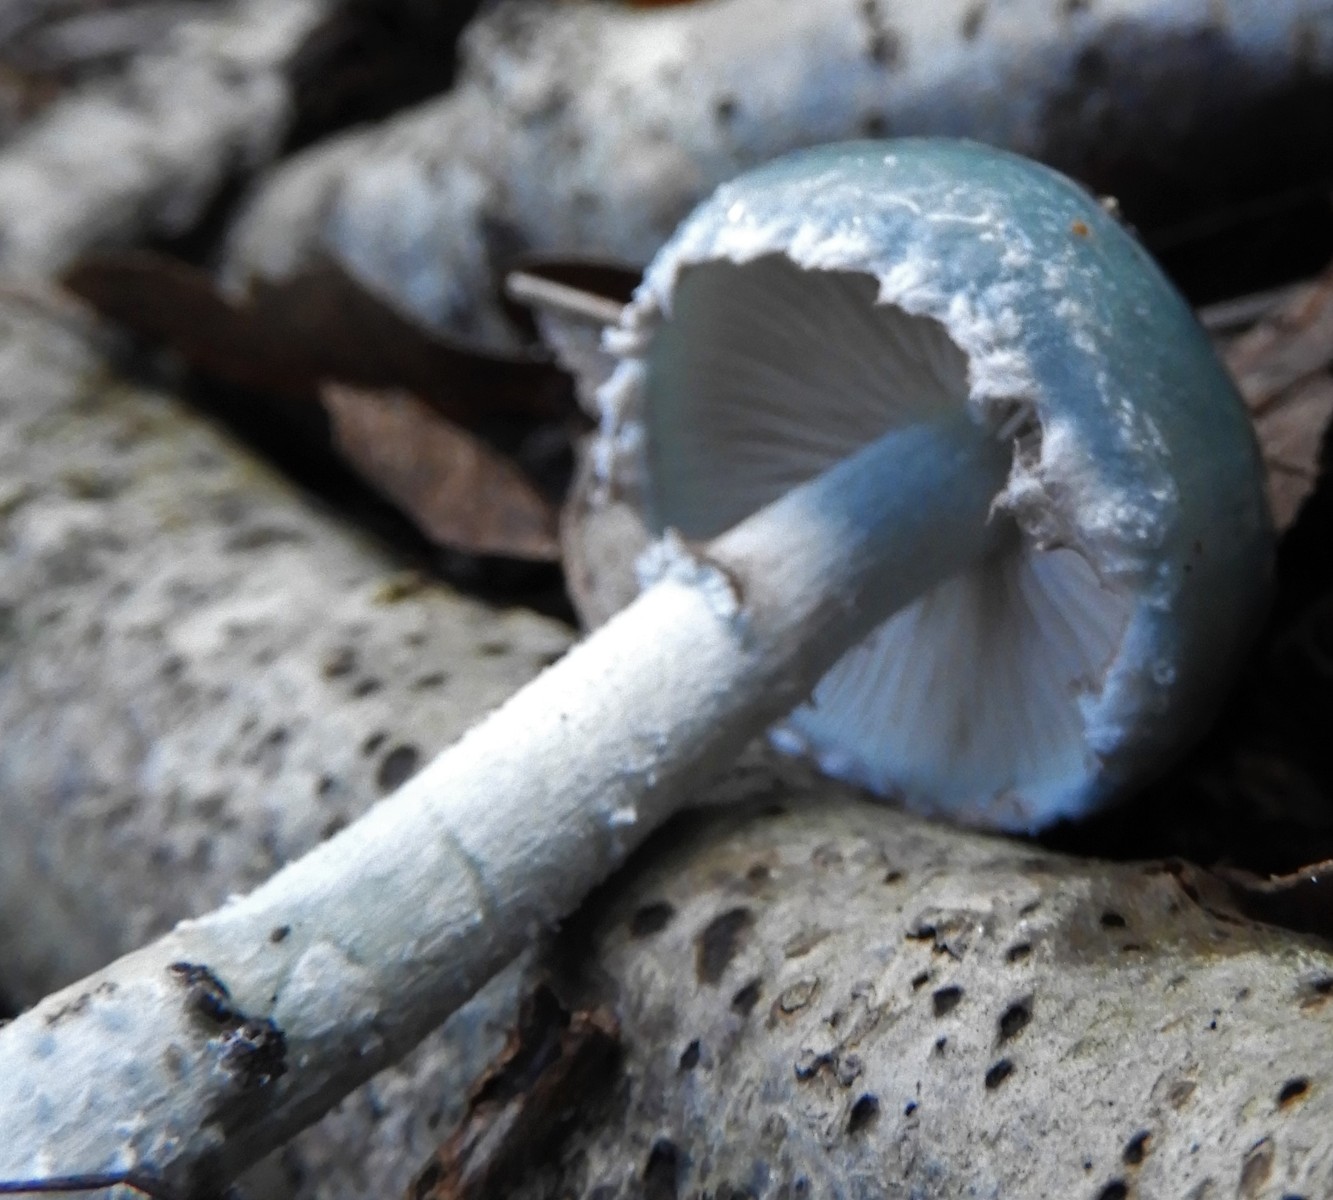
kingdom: Fungi
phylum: Basidiomycota
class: Agaricomycetes
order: Agaricales
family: Strophariaceae
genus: Stropharia
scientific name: Stropharia cyanea
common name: blågrøn bredblad
